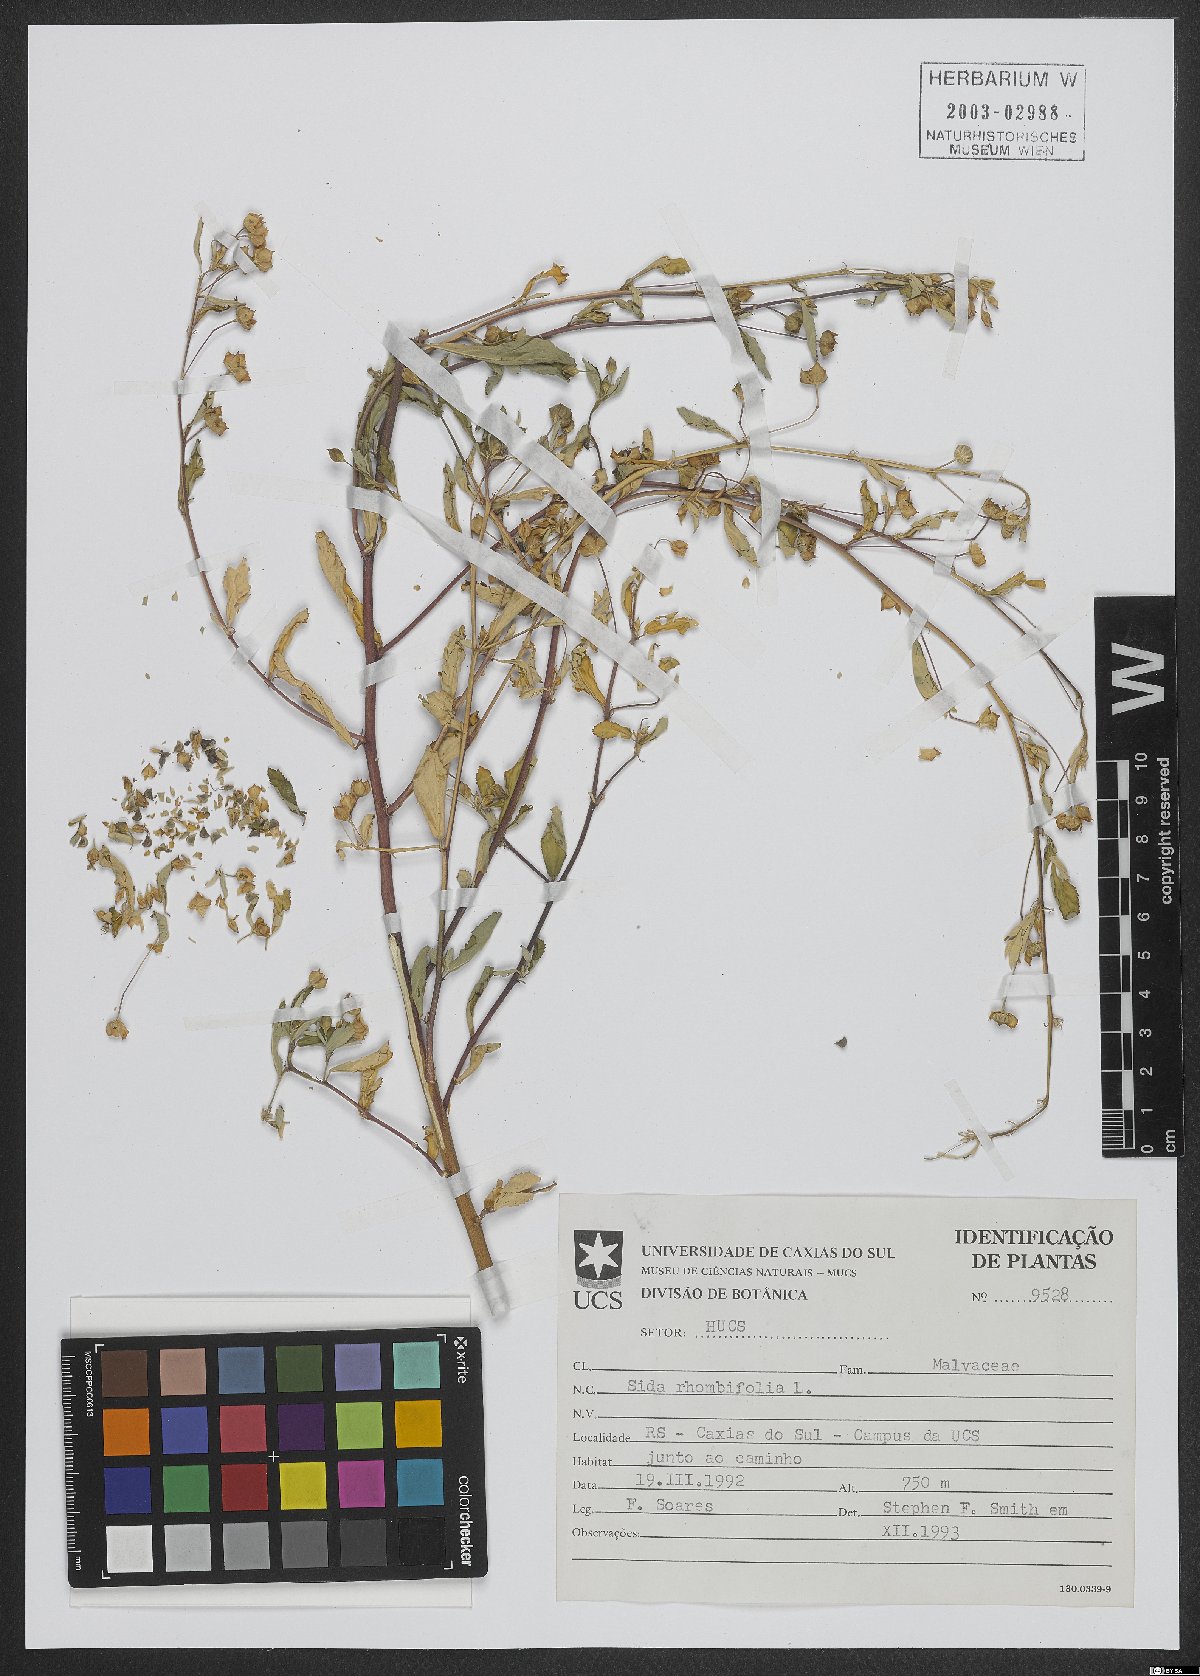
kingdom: Plantae
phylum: Tracheophyta
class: Magnoliopsida
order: Malvales
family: Malvaceae
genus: Sida
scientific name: Sida rhombifolia
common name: Queensland-hemp
